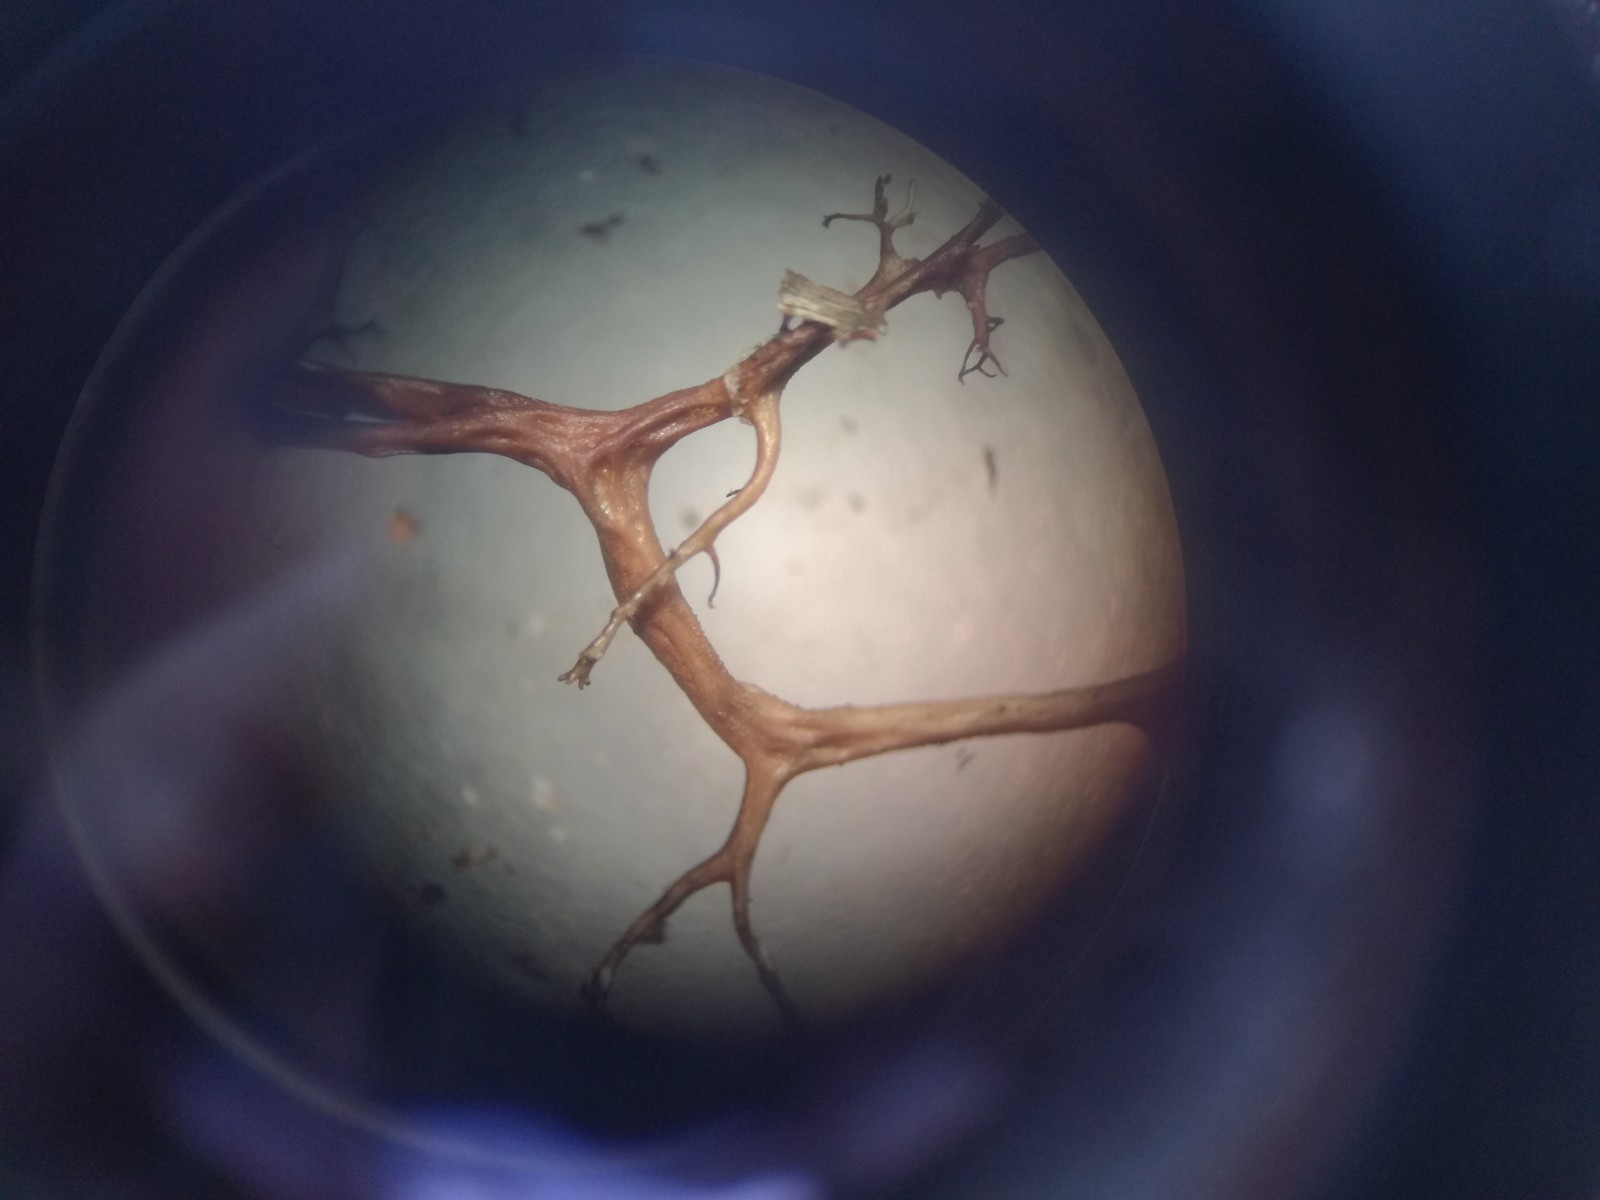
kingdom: Fungi
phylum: Ascomycota
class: Lecanoromycetes
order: Lecanorales
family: Parmeliaceae
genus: Cetraria
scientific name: Cetraria aculeata
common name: grubet tjørnelav
